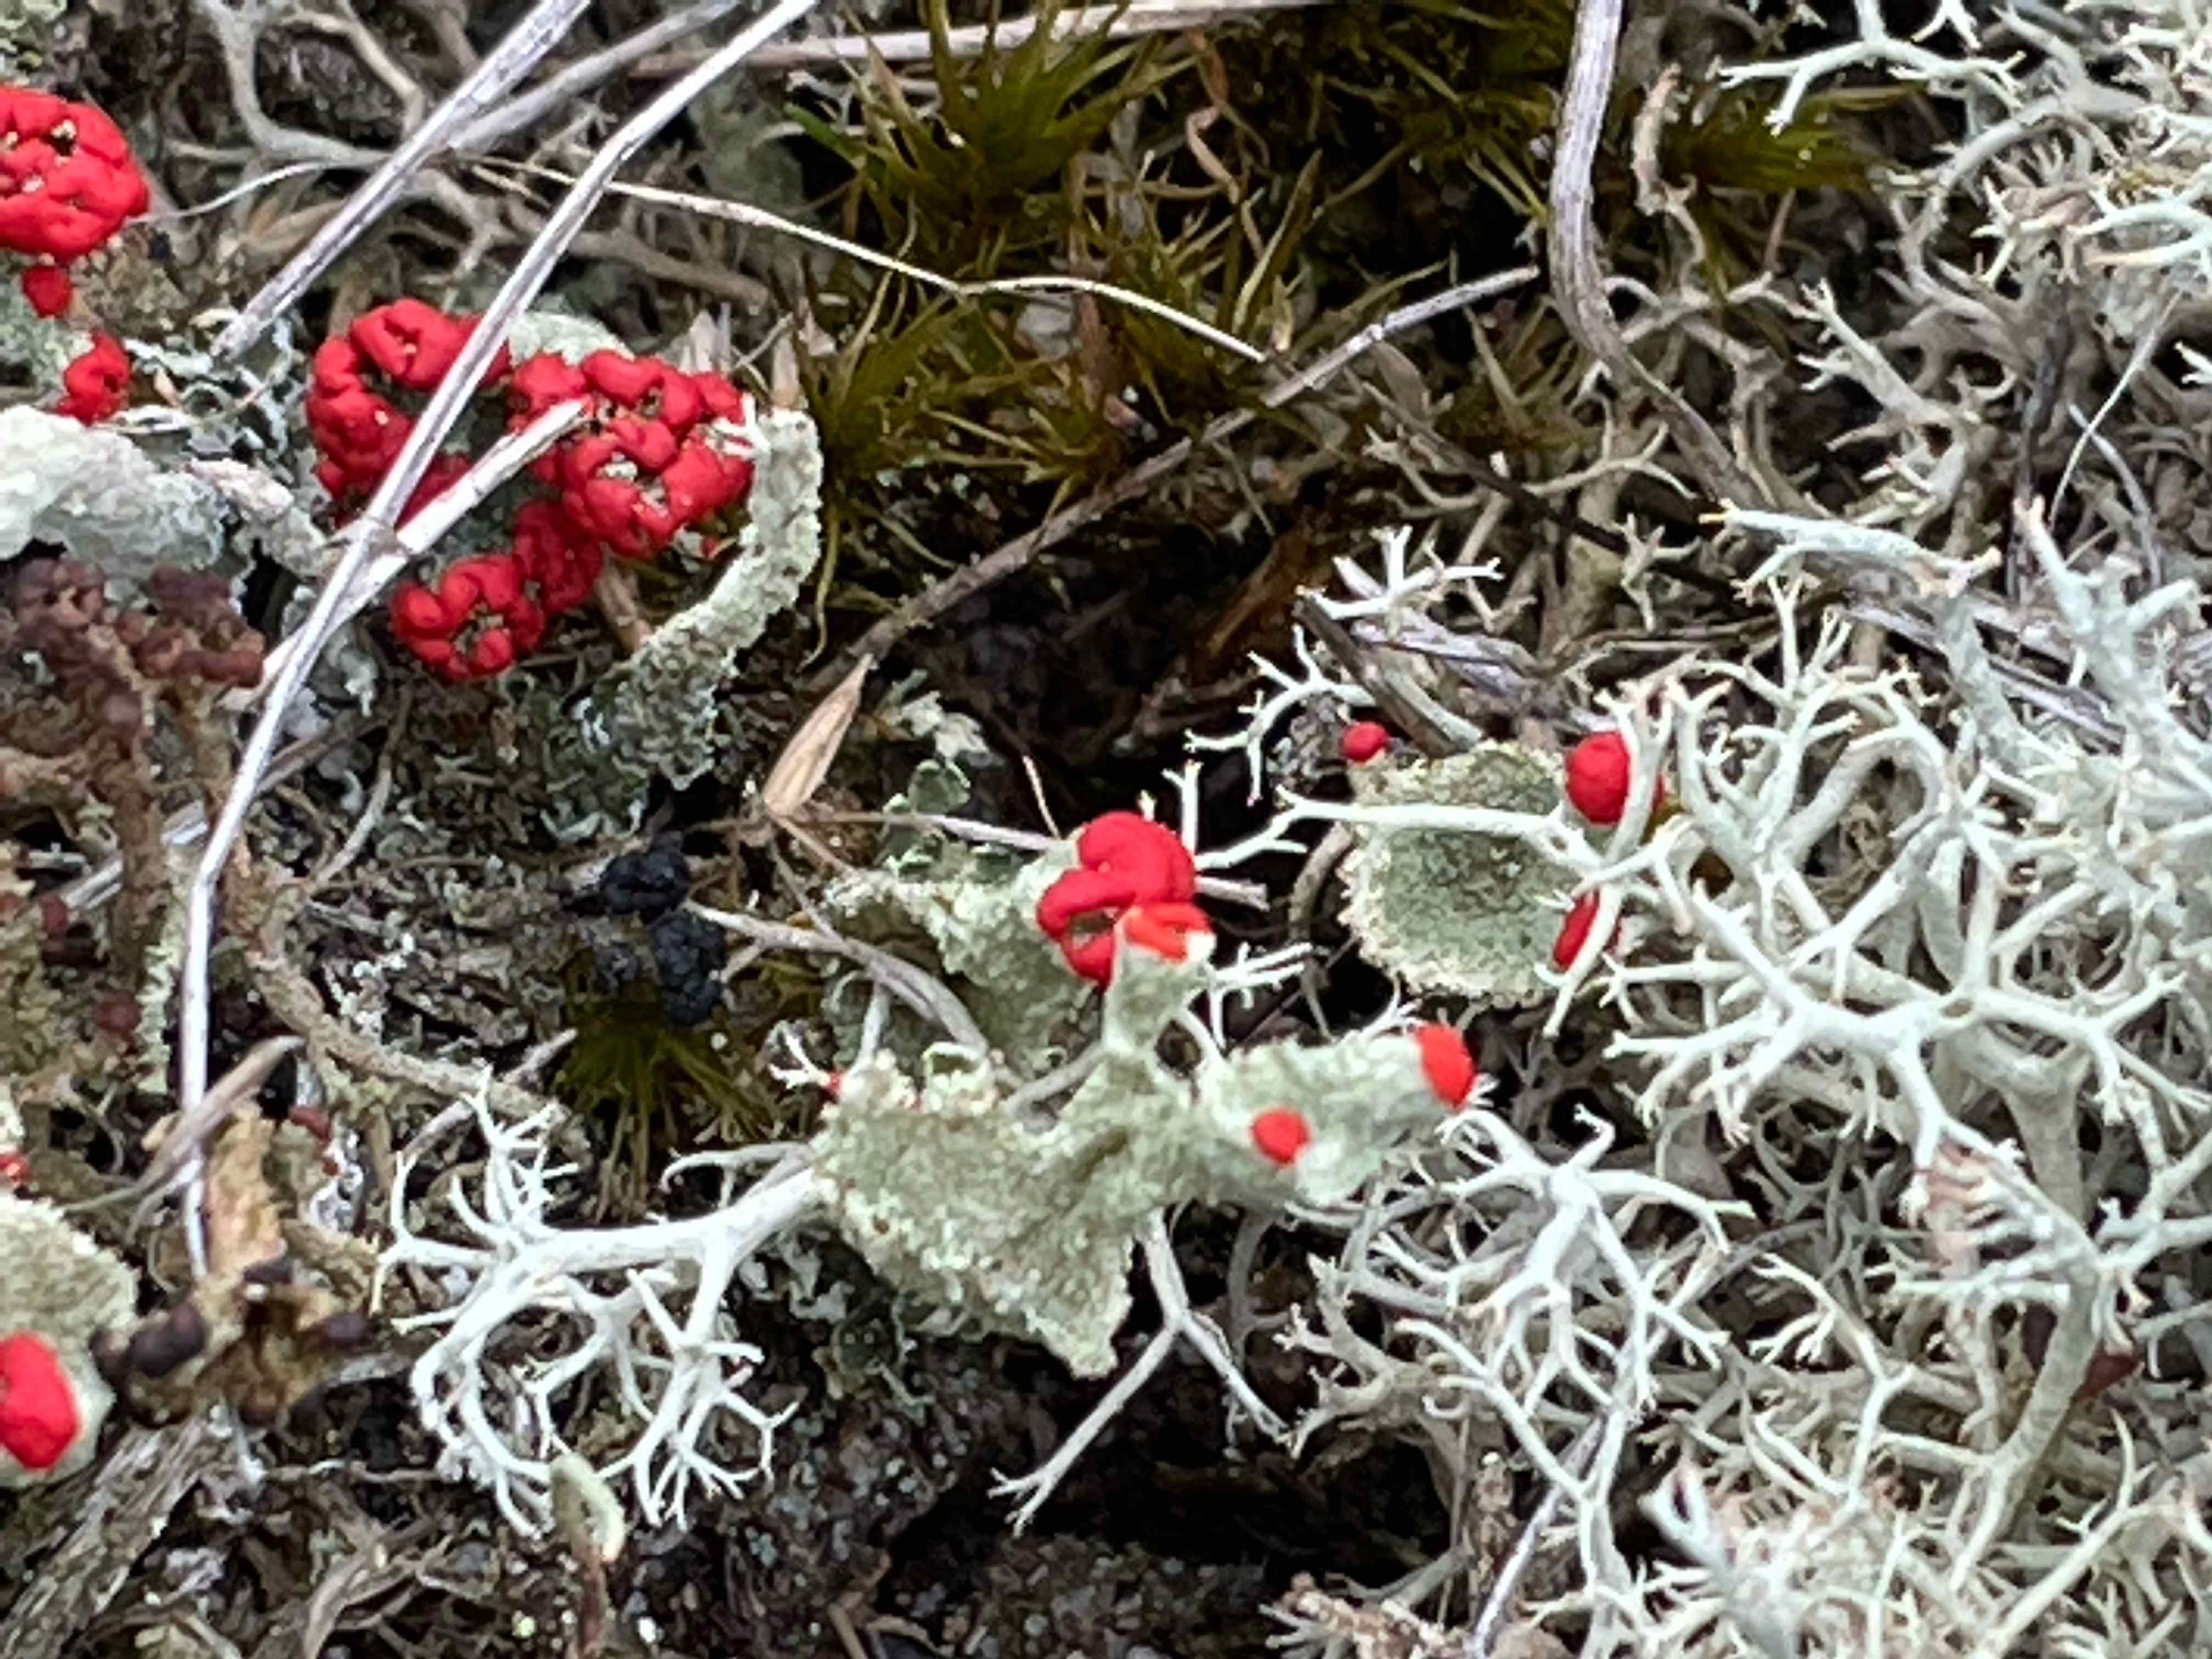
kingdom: Fungi
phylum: Ascomycota
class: Lecanoromycetes
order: Lecanorales
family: Cladoniaceae
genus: Cladonia
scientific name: Cladonia diversa
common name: rød bægerlav
